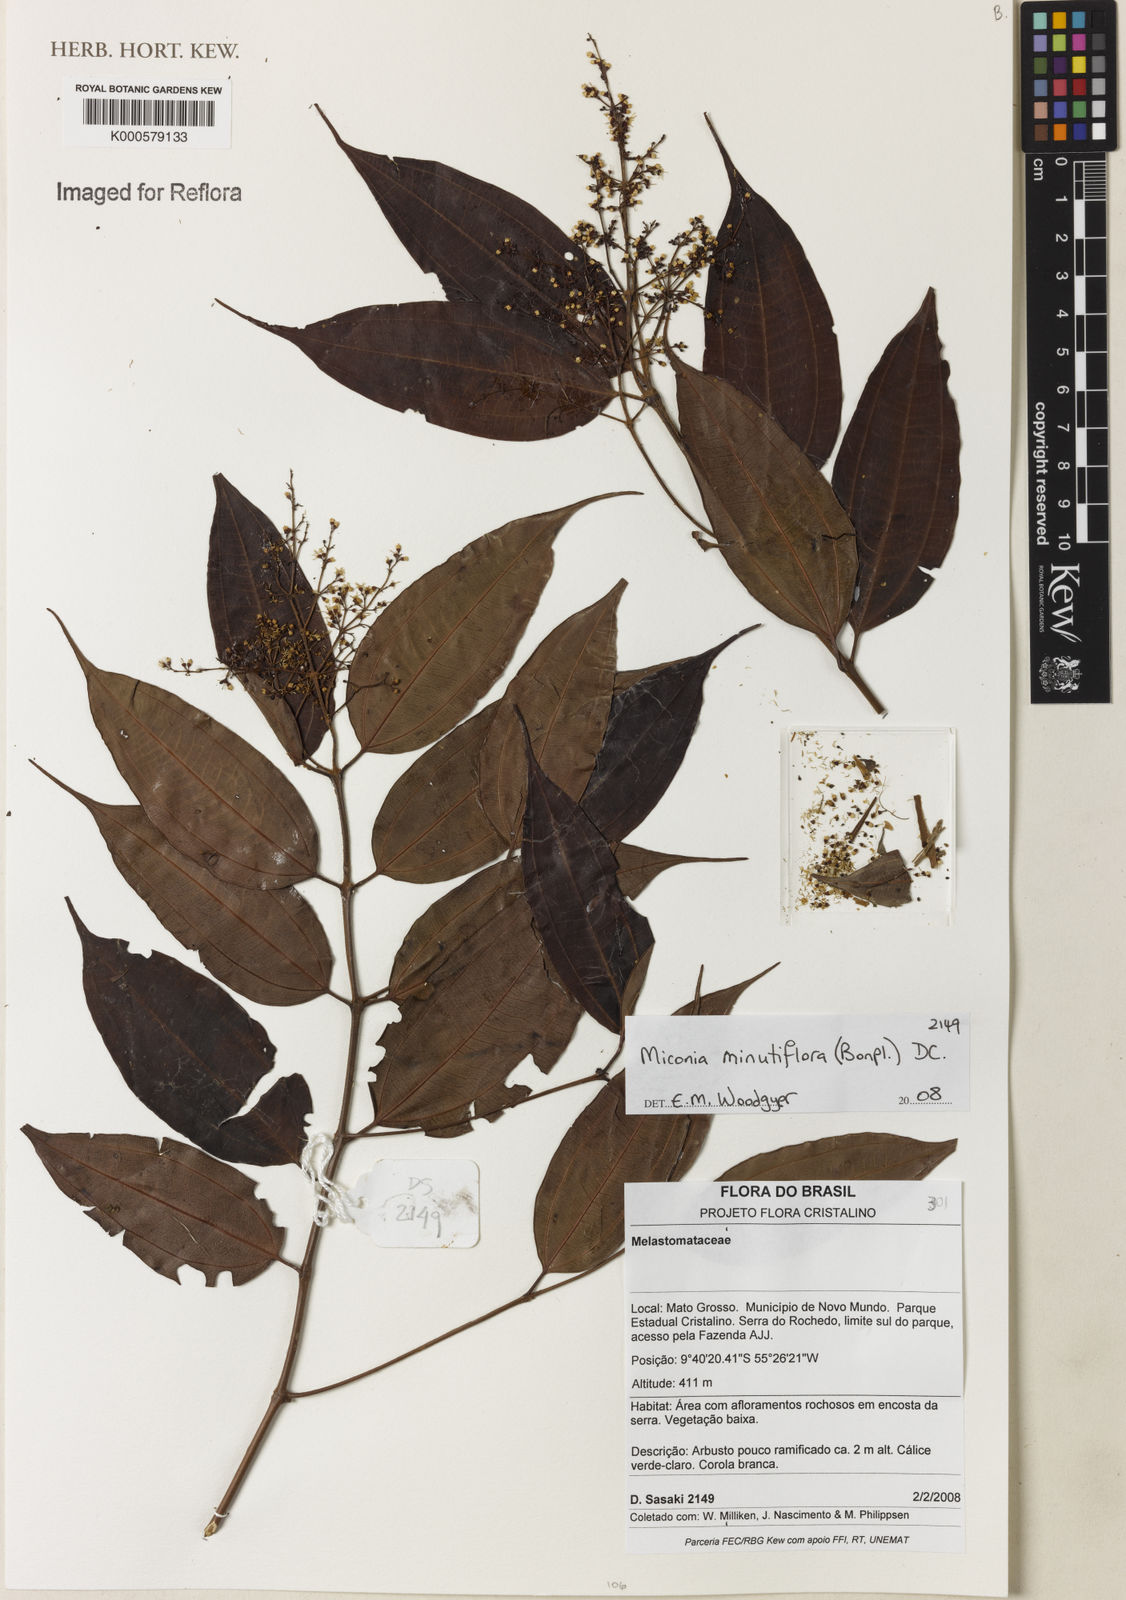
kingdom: Plantae
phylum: Tracheophyta
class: Magnoliopsida
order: Myrtales
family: Melastomataceae
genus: Miconia
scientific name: Miconia minutiflora
